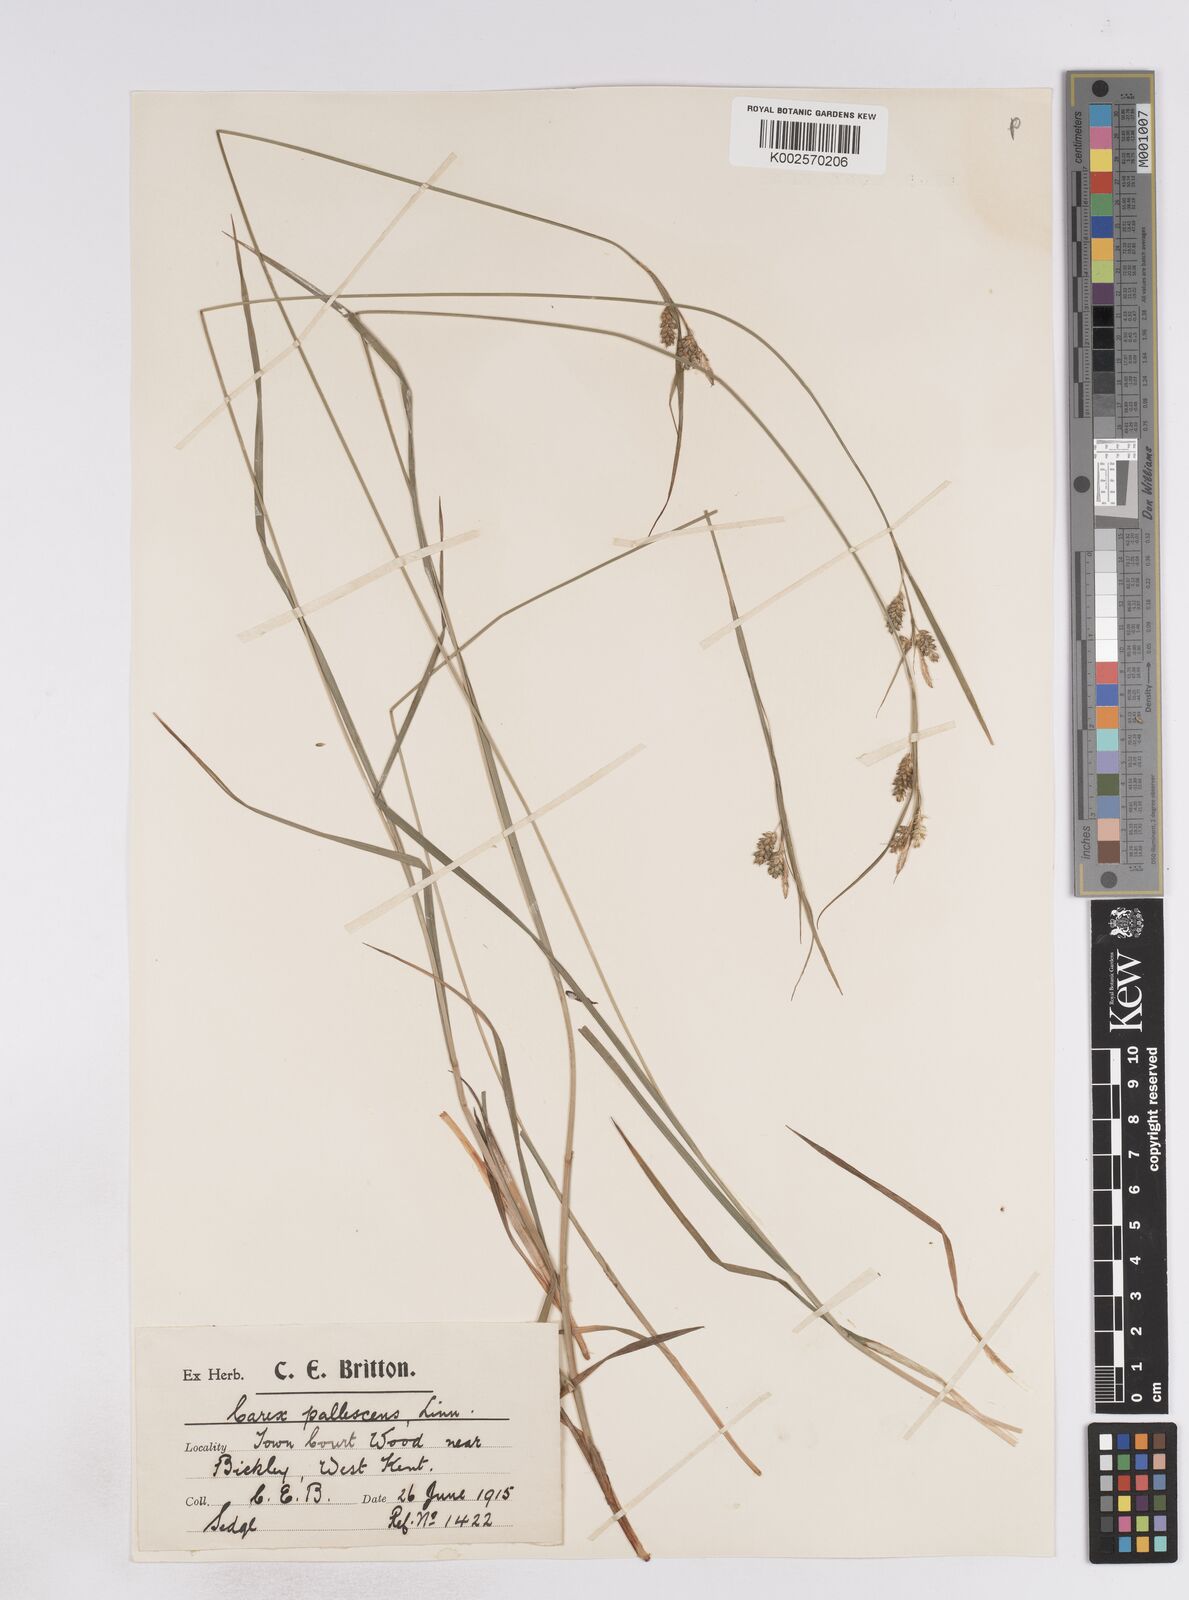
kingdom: Plantae
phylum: Tracheophyta
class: Liliopsida
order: Poales
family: Cyperaceae
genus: Carex
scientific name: Carex pallescens
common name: Pale sedge
